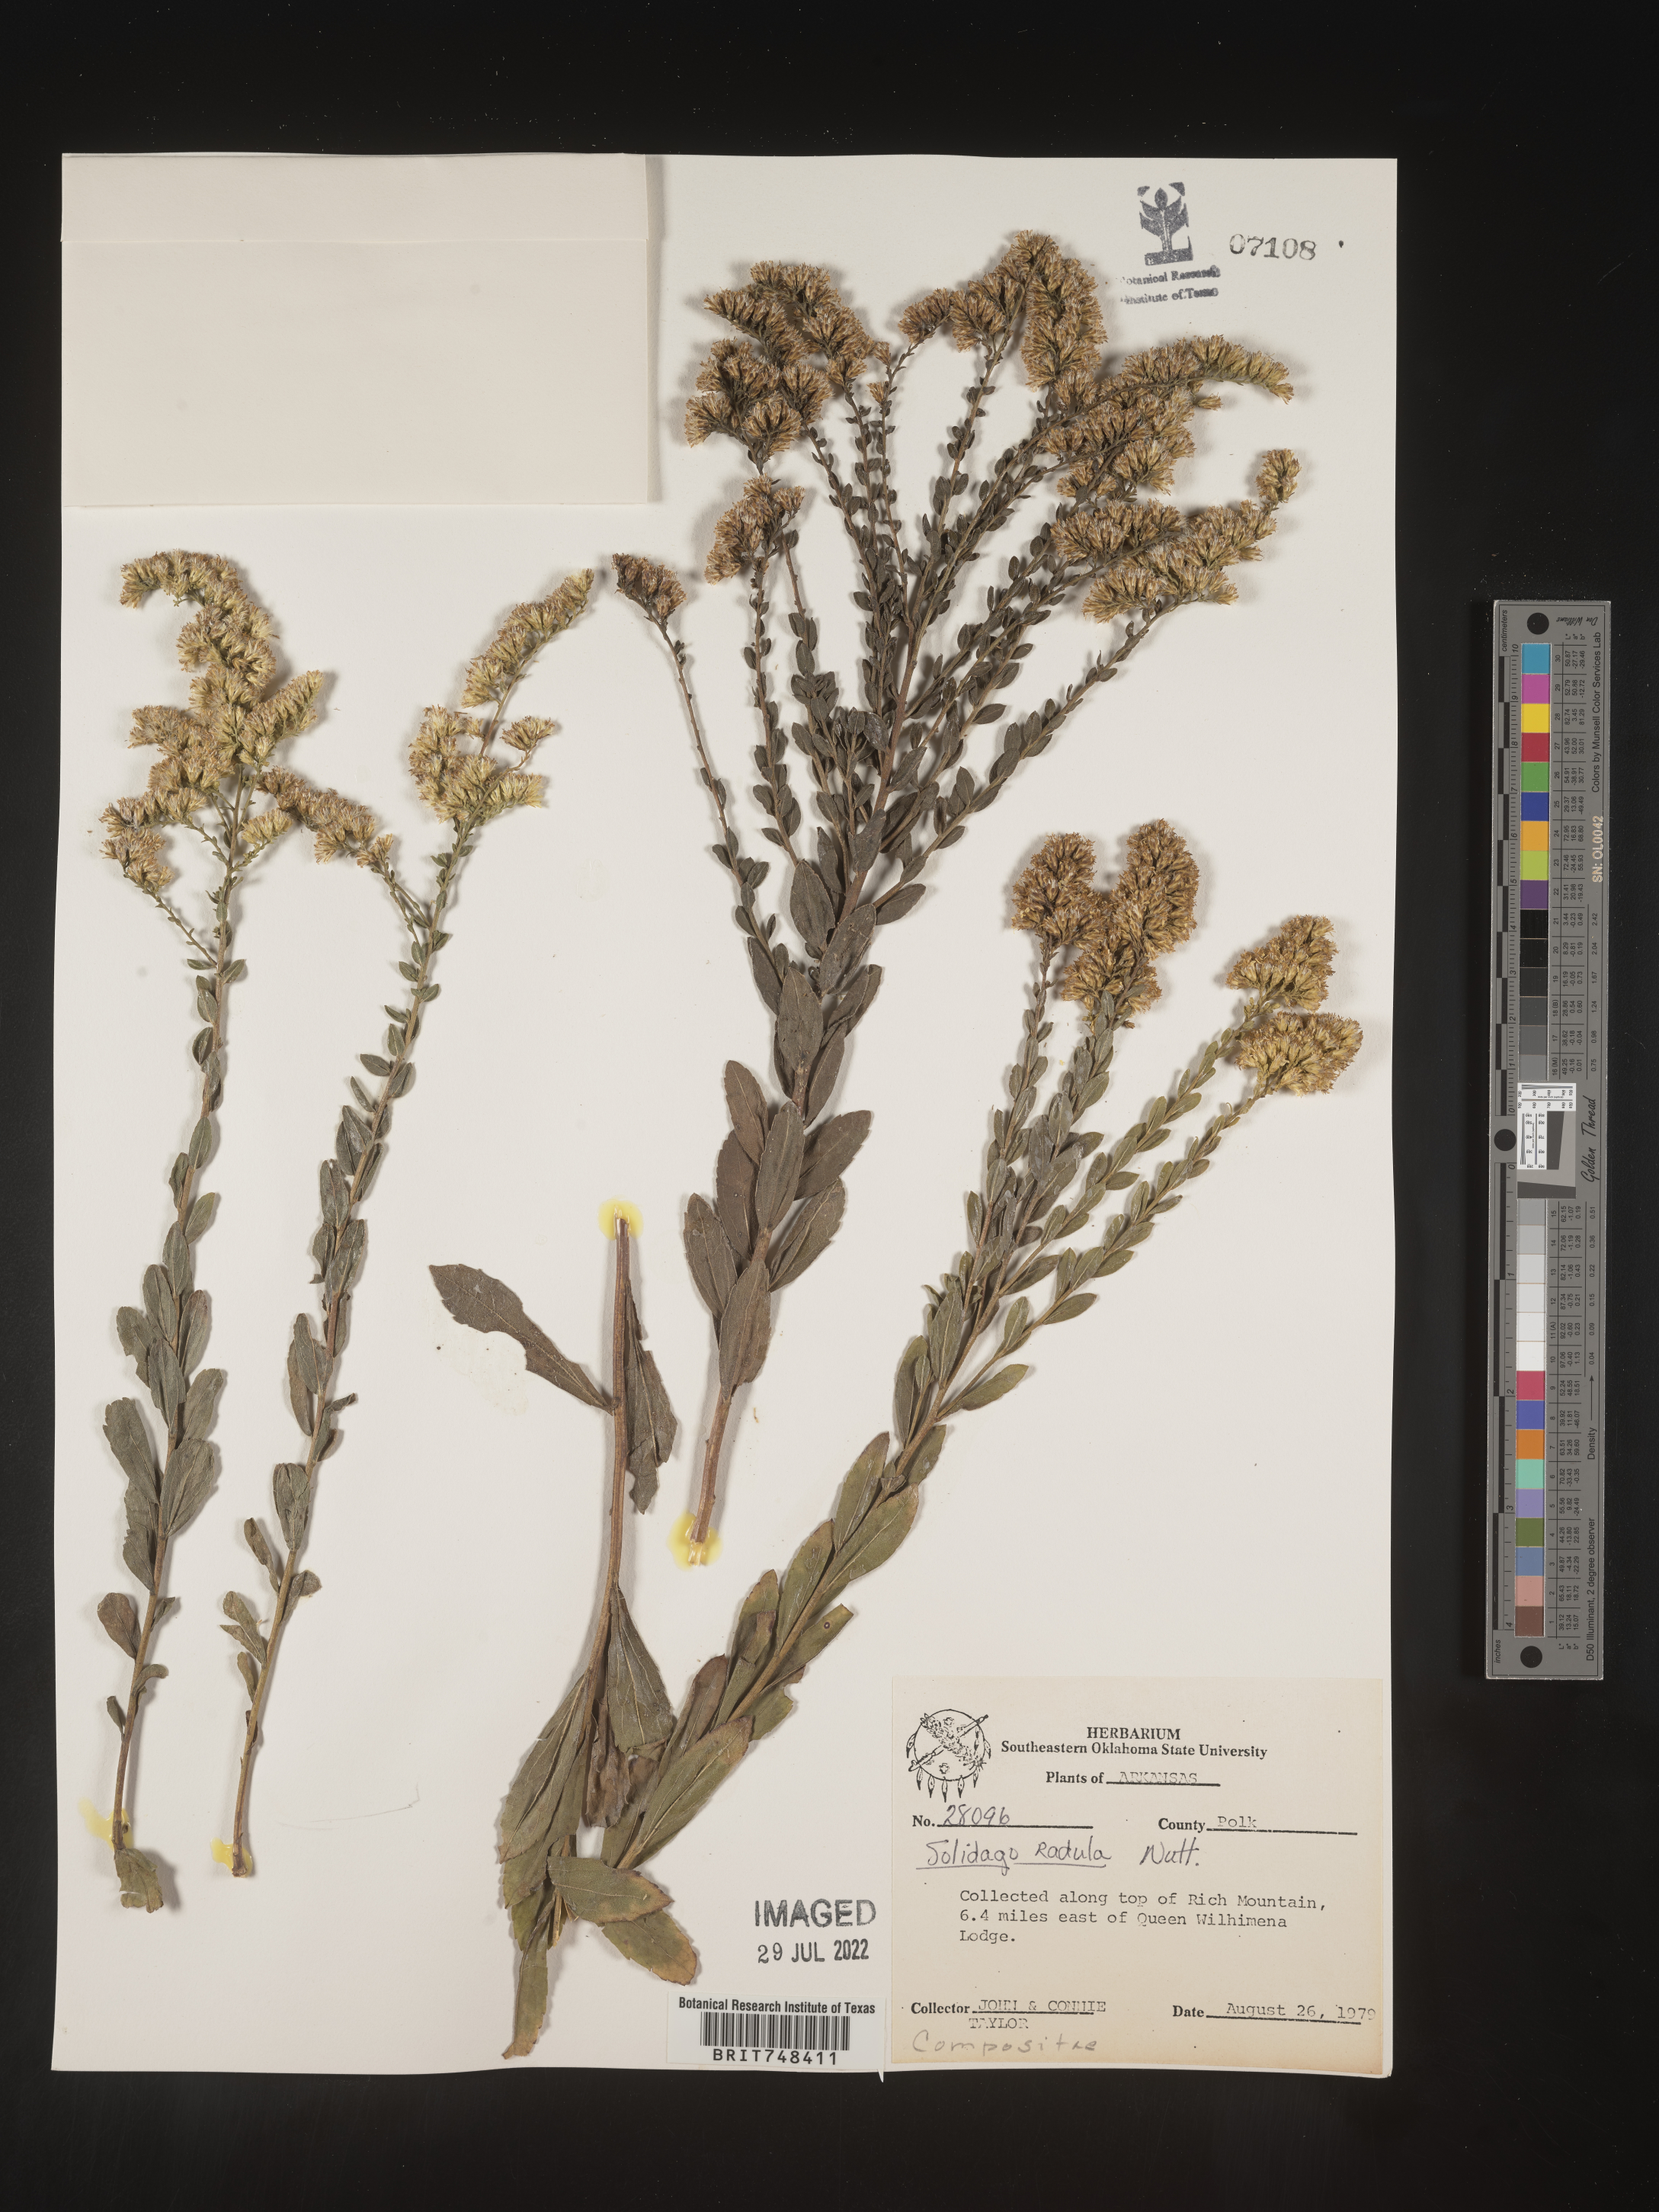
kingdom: Plantae
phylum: Tracheophyta
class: Magnoliopsida
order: Asterales
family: Asteraceae
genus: Solidago
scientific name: Solidago radula
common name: Western rough goldenrod
